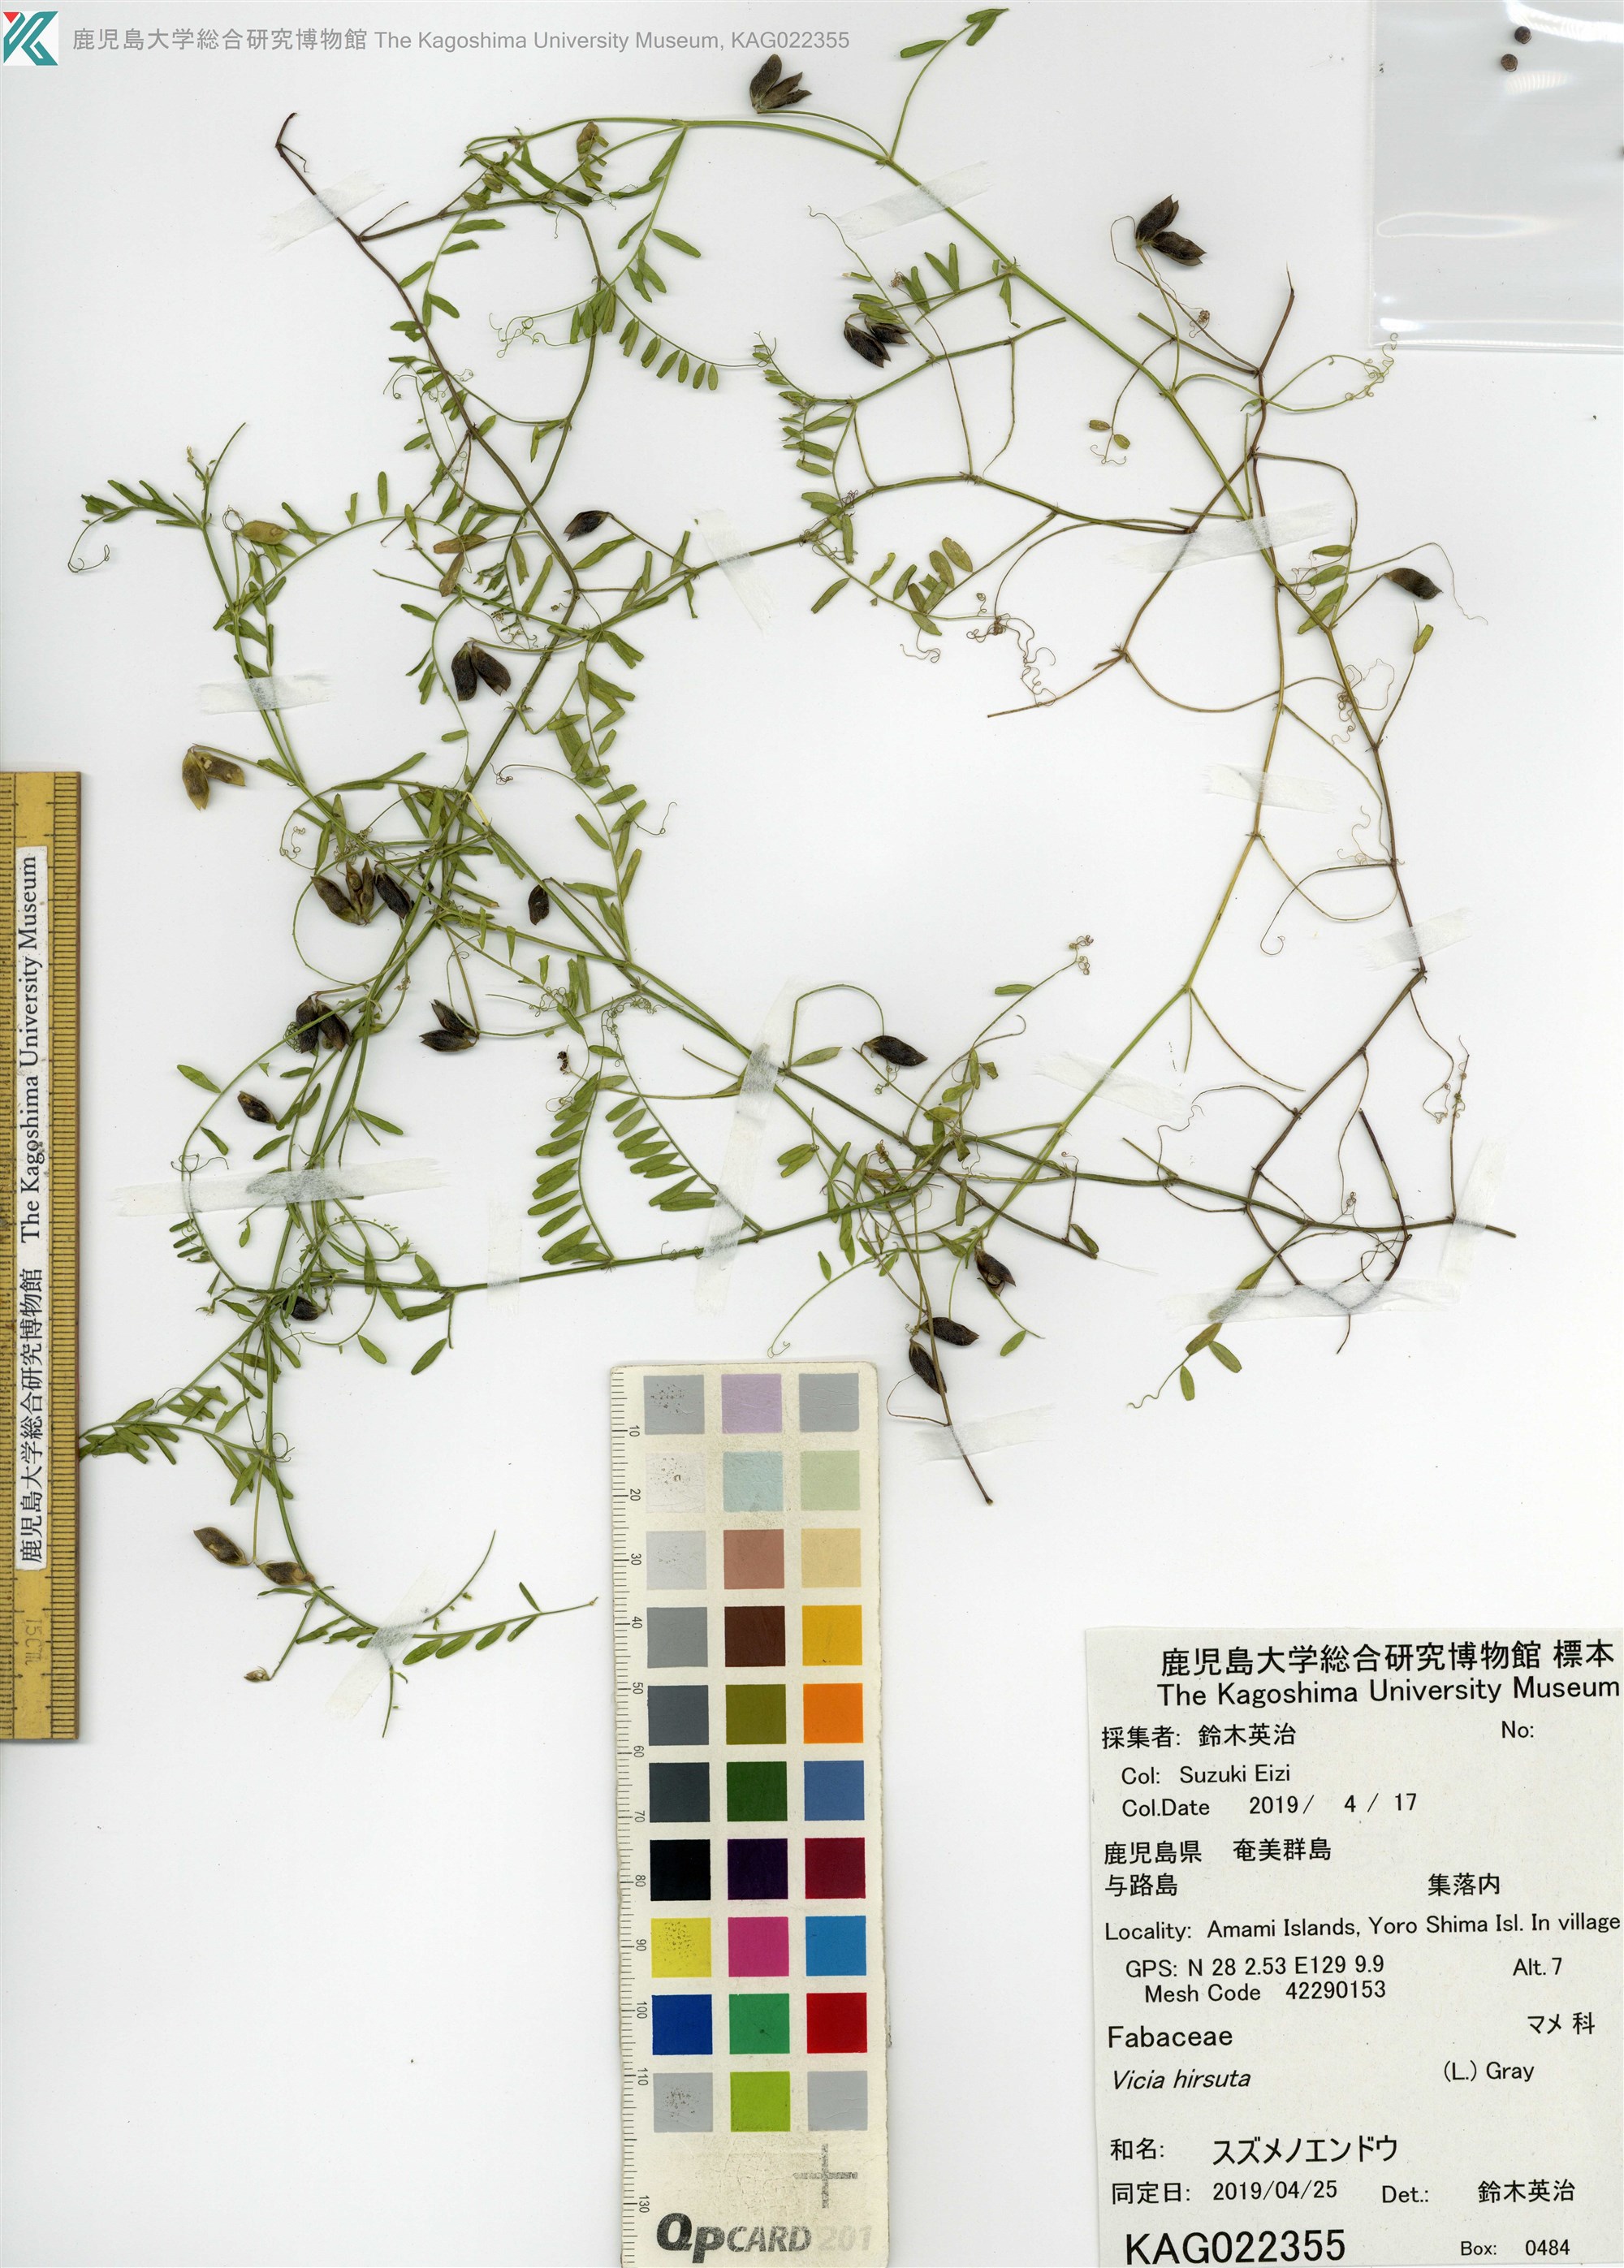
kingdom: Plantae
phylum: Tracheophyta
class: Magnoliopsida
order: Fabales
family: Fabaceae
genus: Vicia
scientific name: Vicia hirsuta
